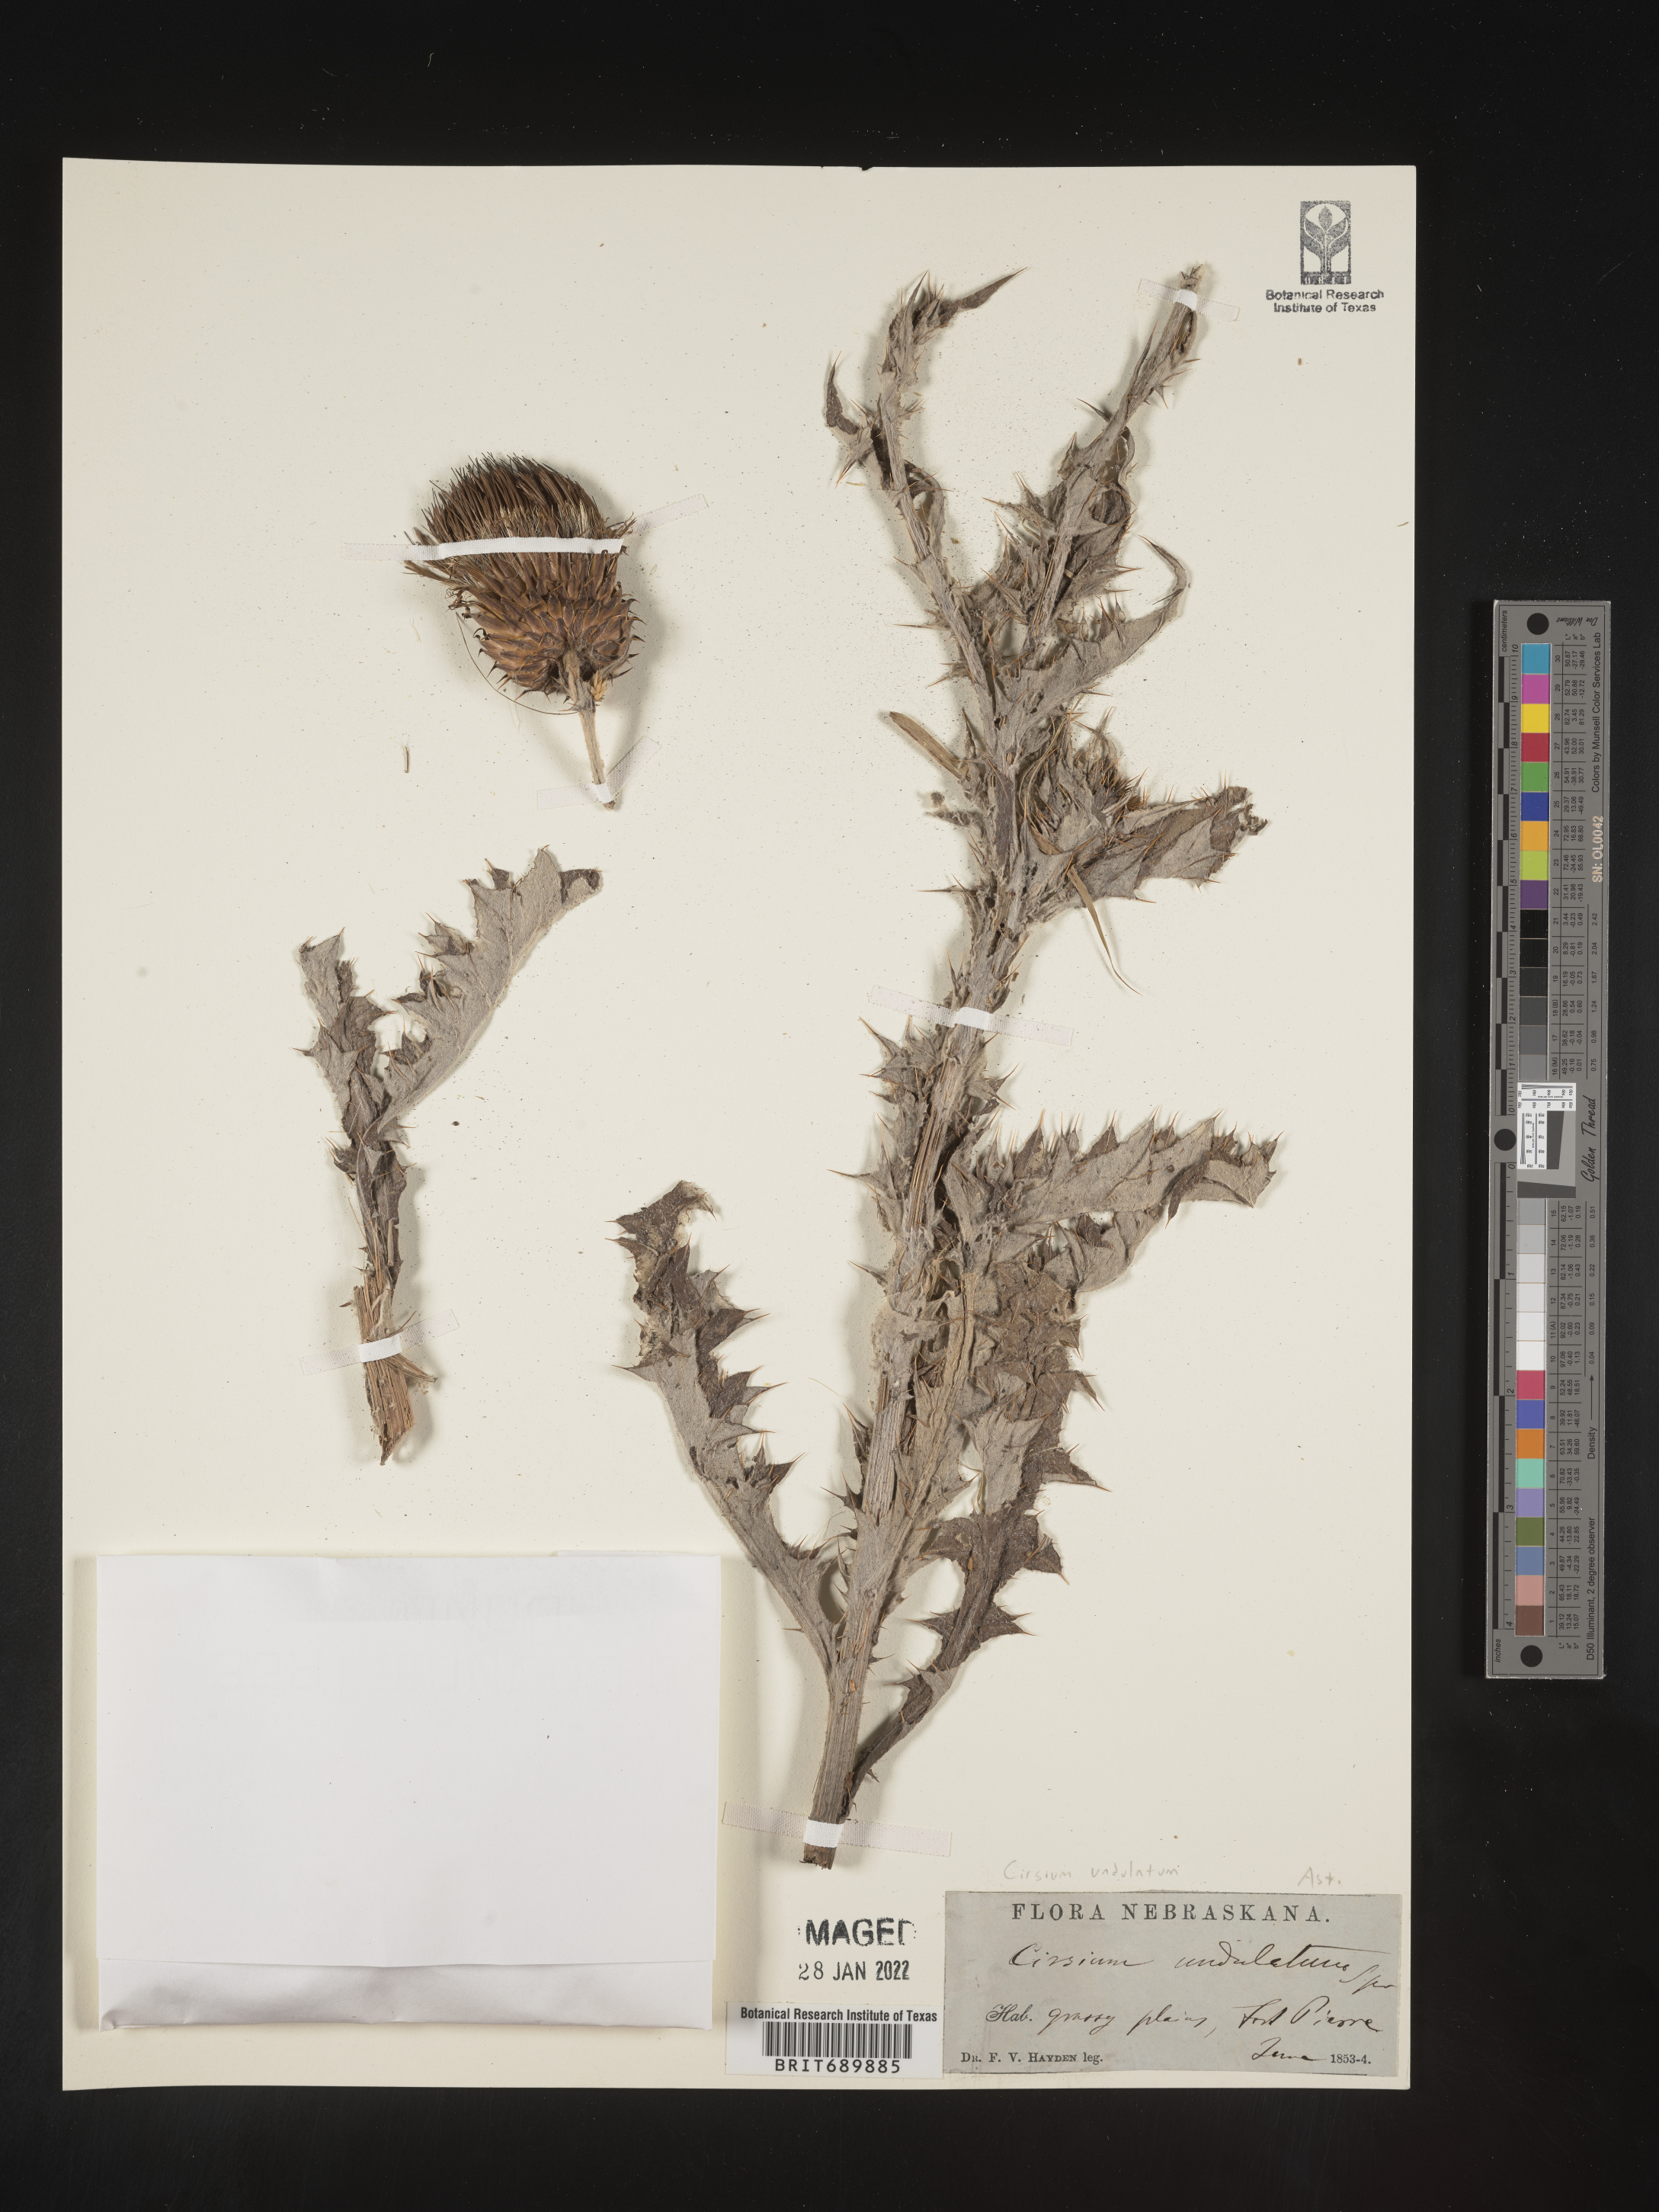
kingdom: Plantae
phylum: Tracheophyta
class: Magnoliopsida
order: Asterales
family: Asteraceae
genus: Cirsium
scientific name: Cirsium undulatum
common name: Pasture thistle
